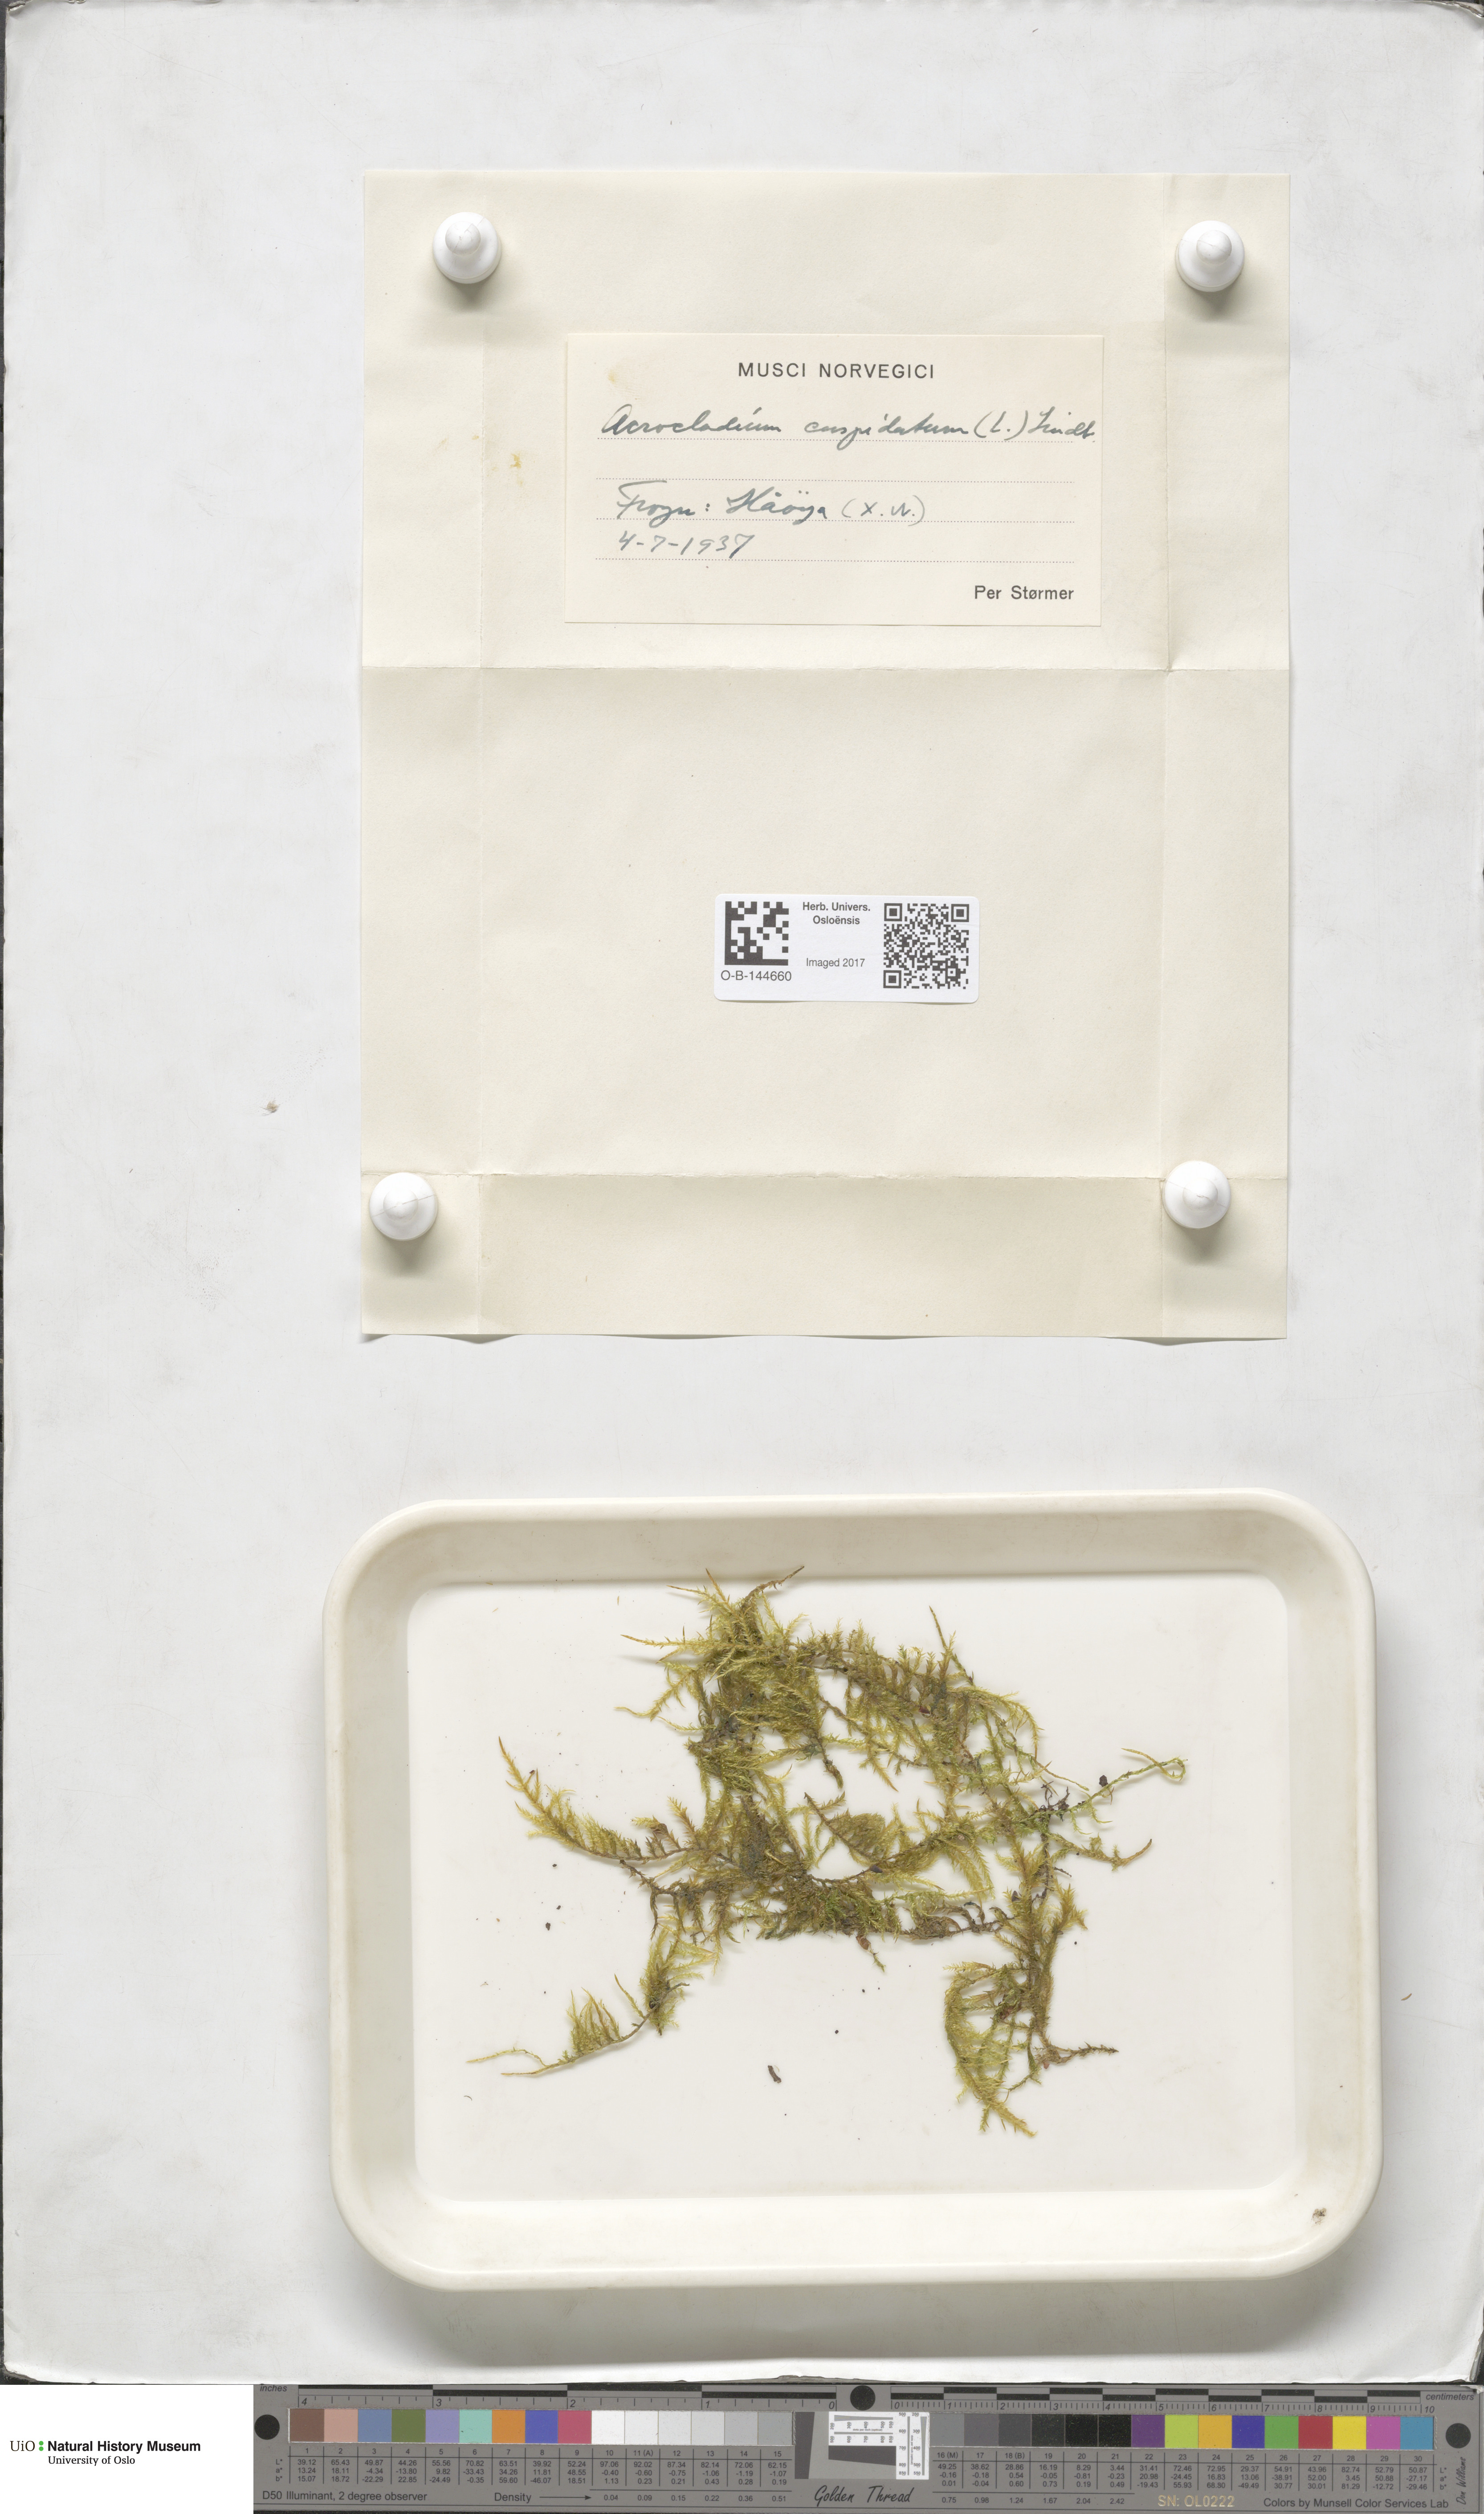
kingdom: Plantae
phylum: Bryophyta
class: Bryopsida
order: Hypnales
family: Pylaisiaceae
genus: Calliergonella
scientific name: Calliergonella cuspidata
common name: Common large wetland moss
